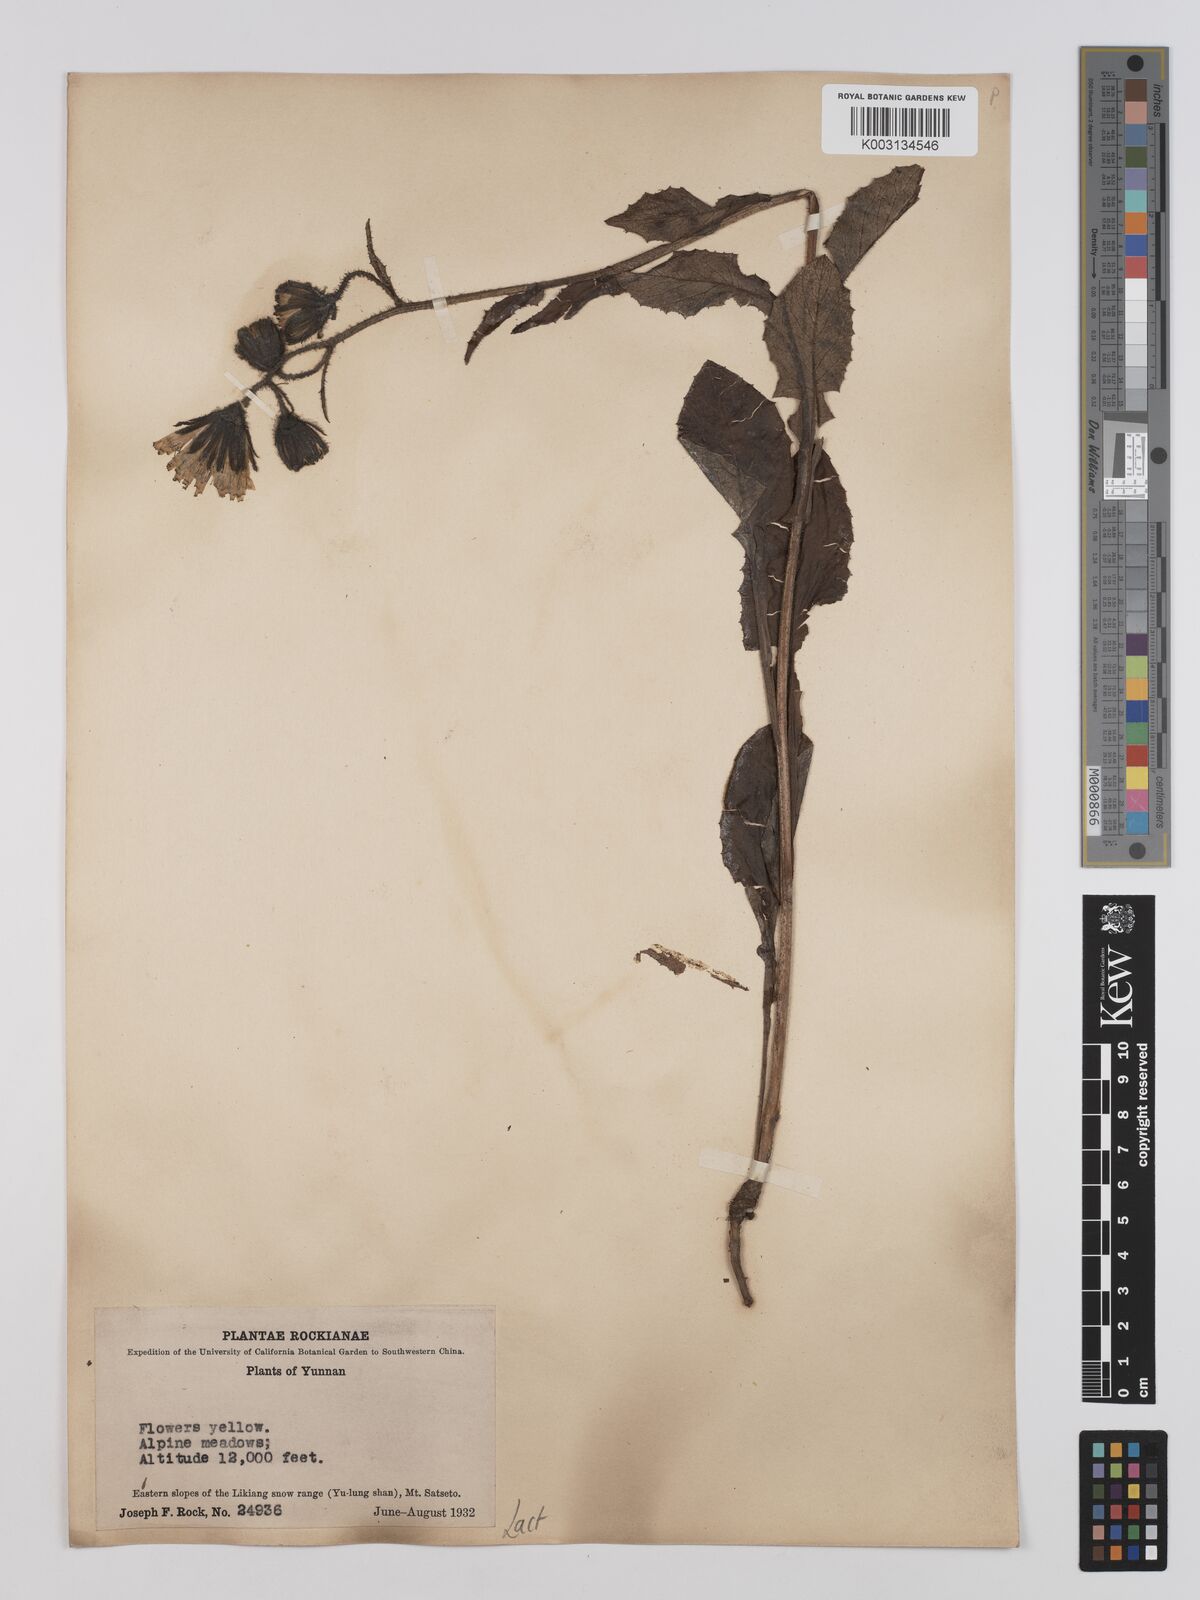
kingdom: Plantae
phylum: Tracheophyta
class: Magnoliopsida
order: Asterales
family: Asteraceae
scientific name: Asteraceae
